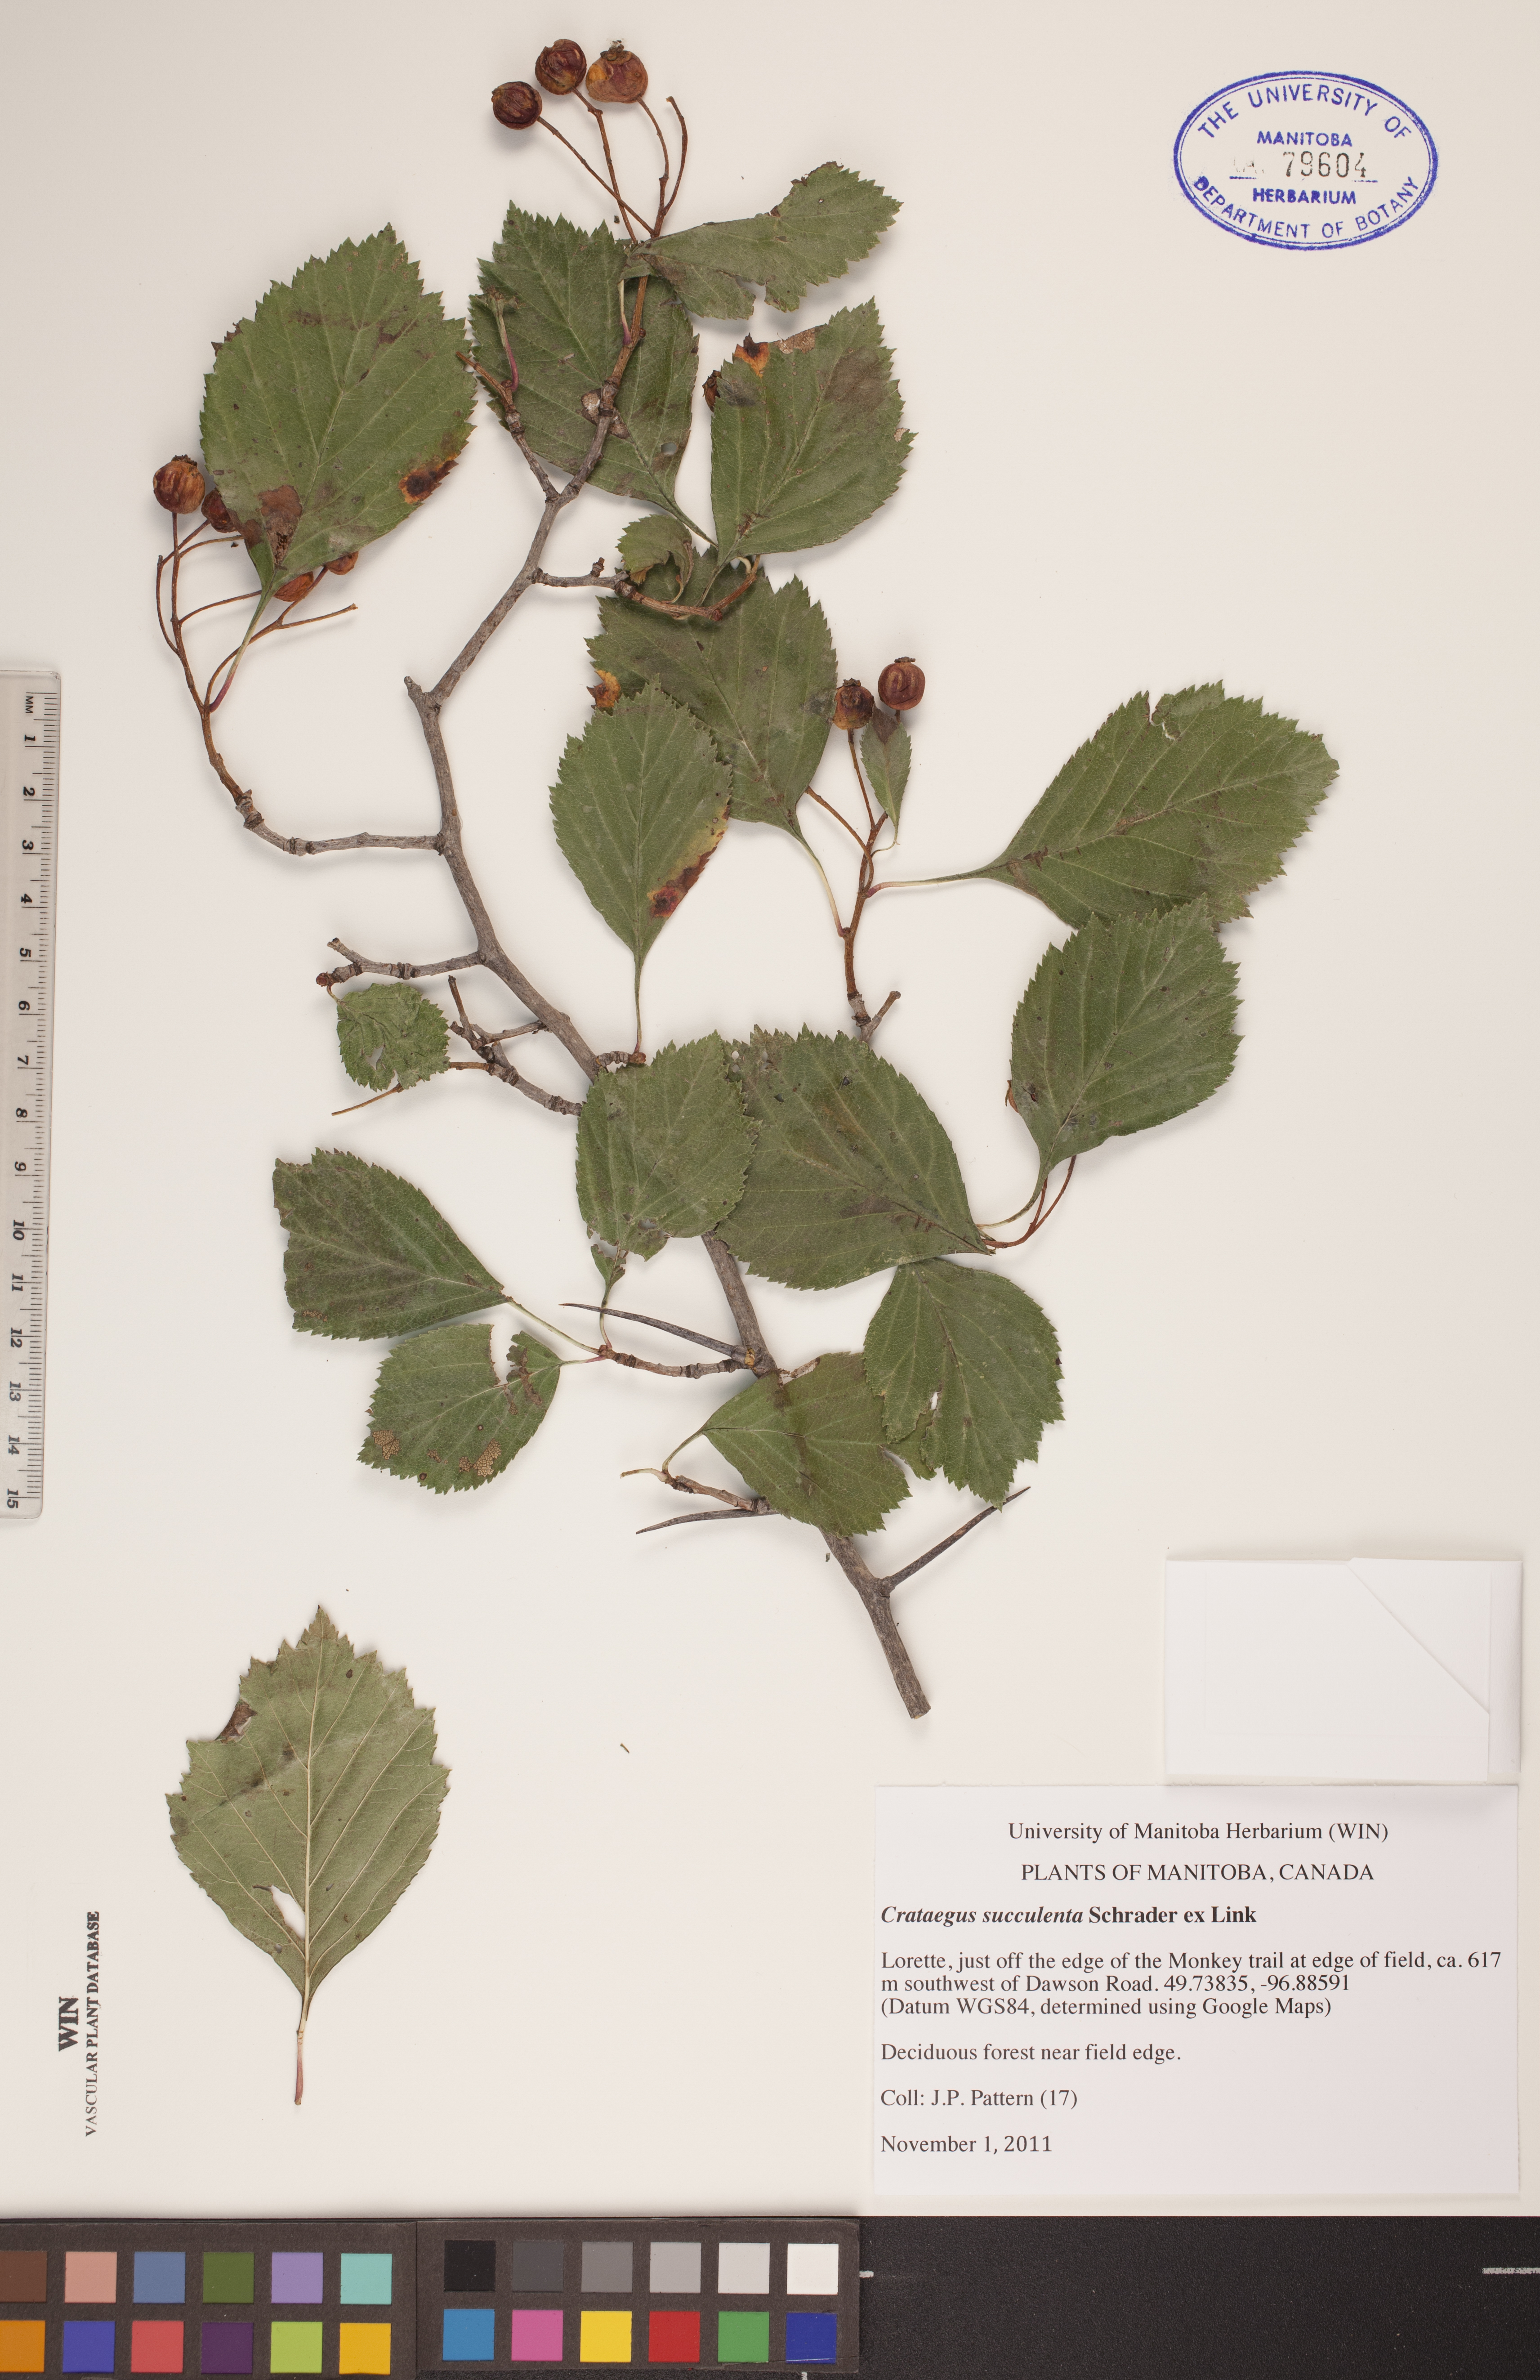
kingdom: Plantae
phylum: Tracheophyta
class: Magnoliopsida
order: Rosales
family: Rosaceae
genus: Crataegus
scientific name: Crataegus succulenta
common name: Fleshy hawthorn
